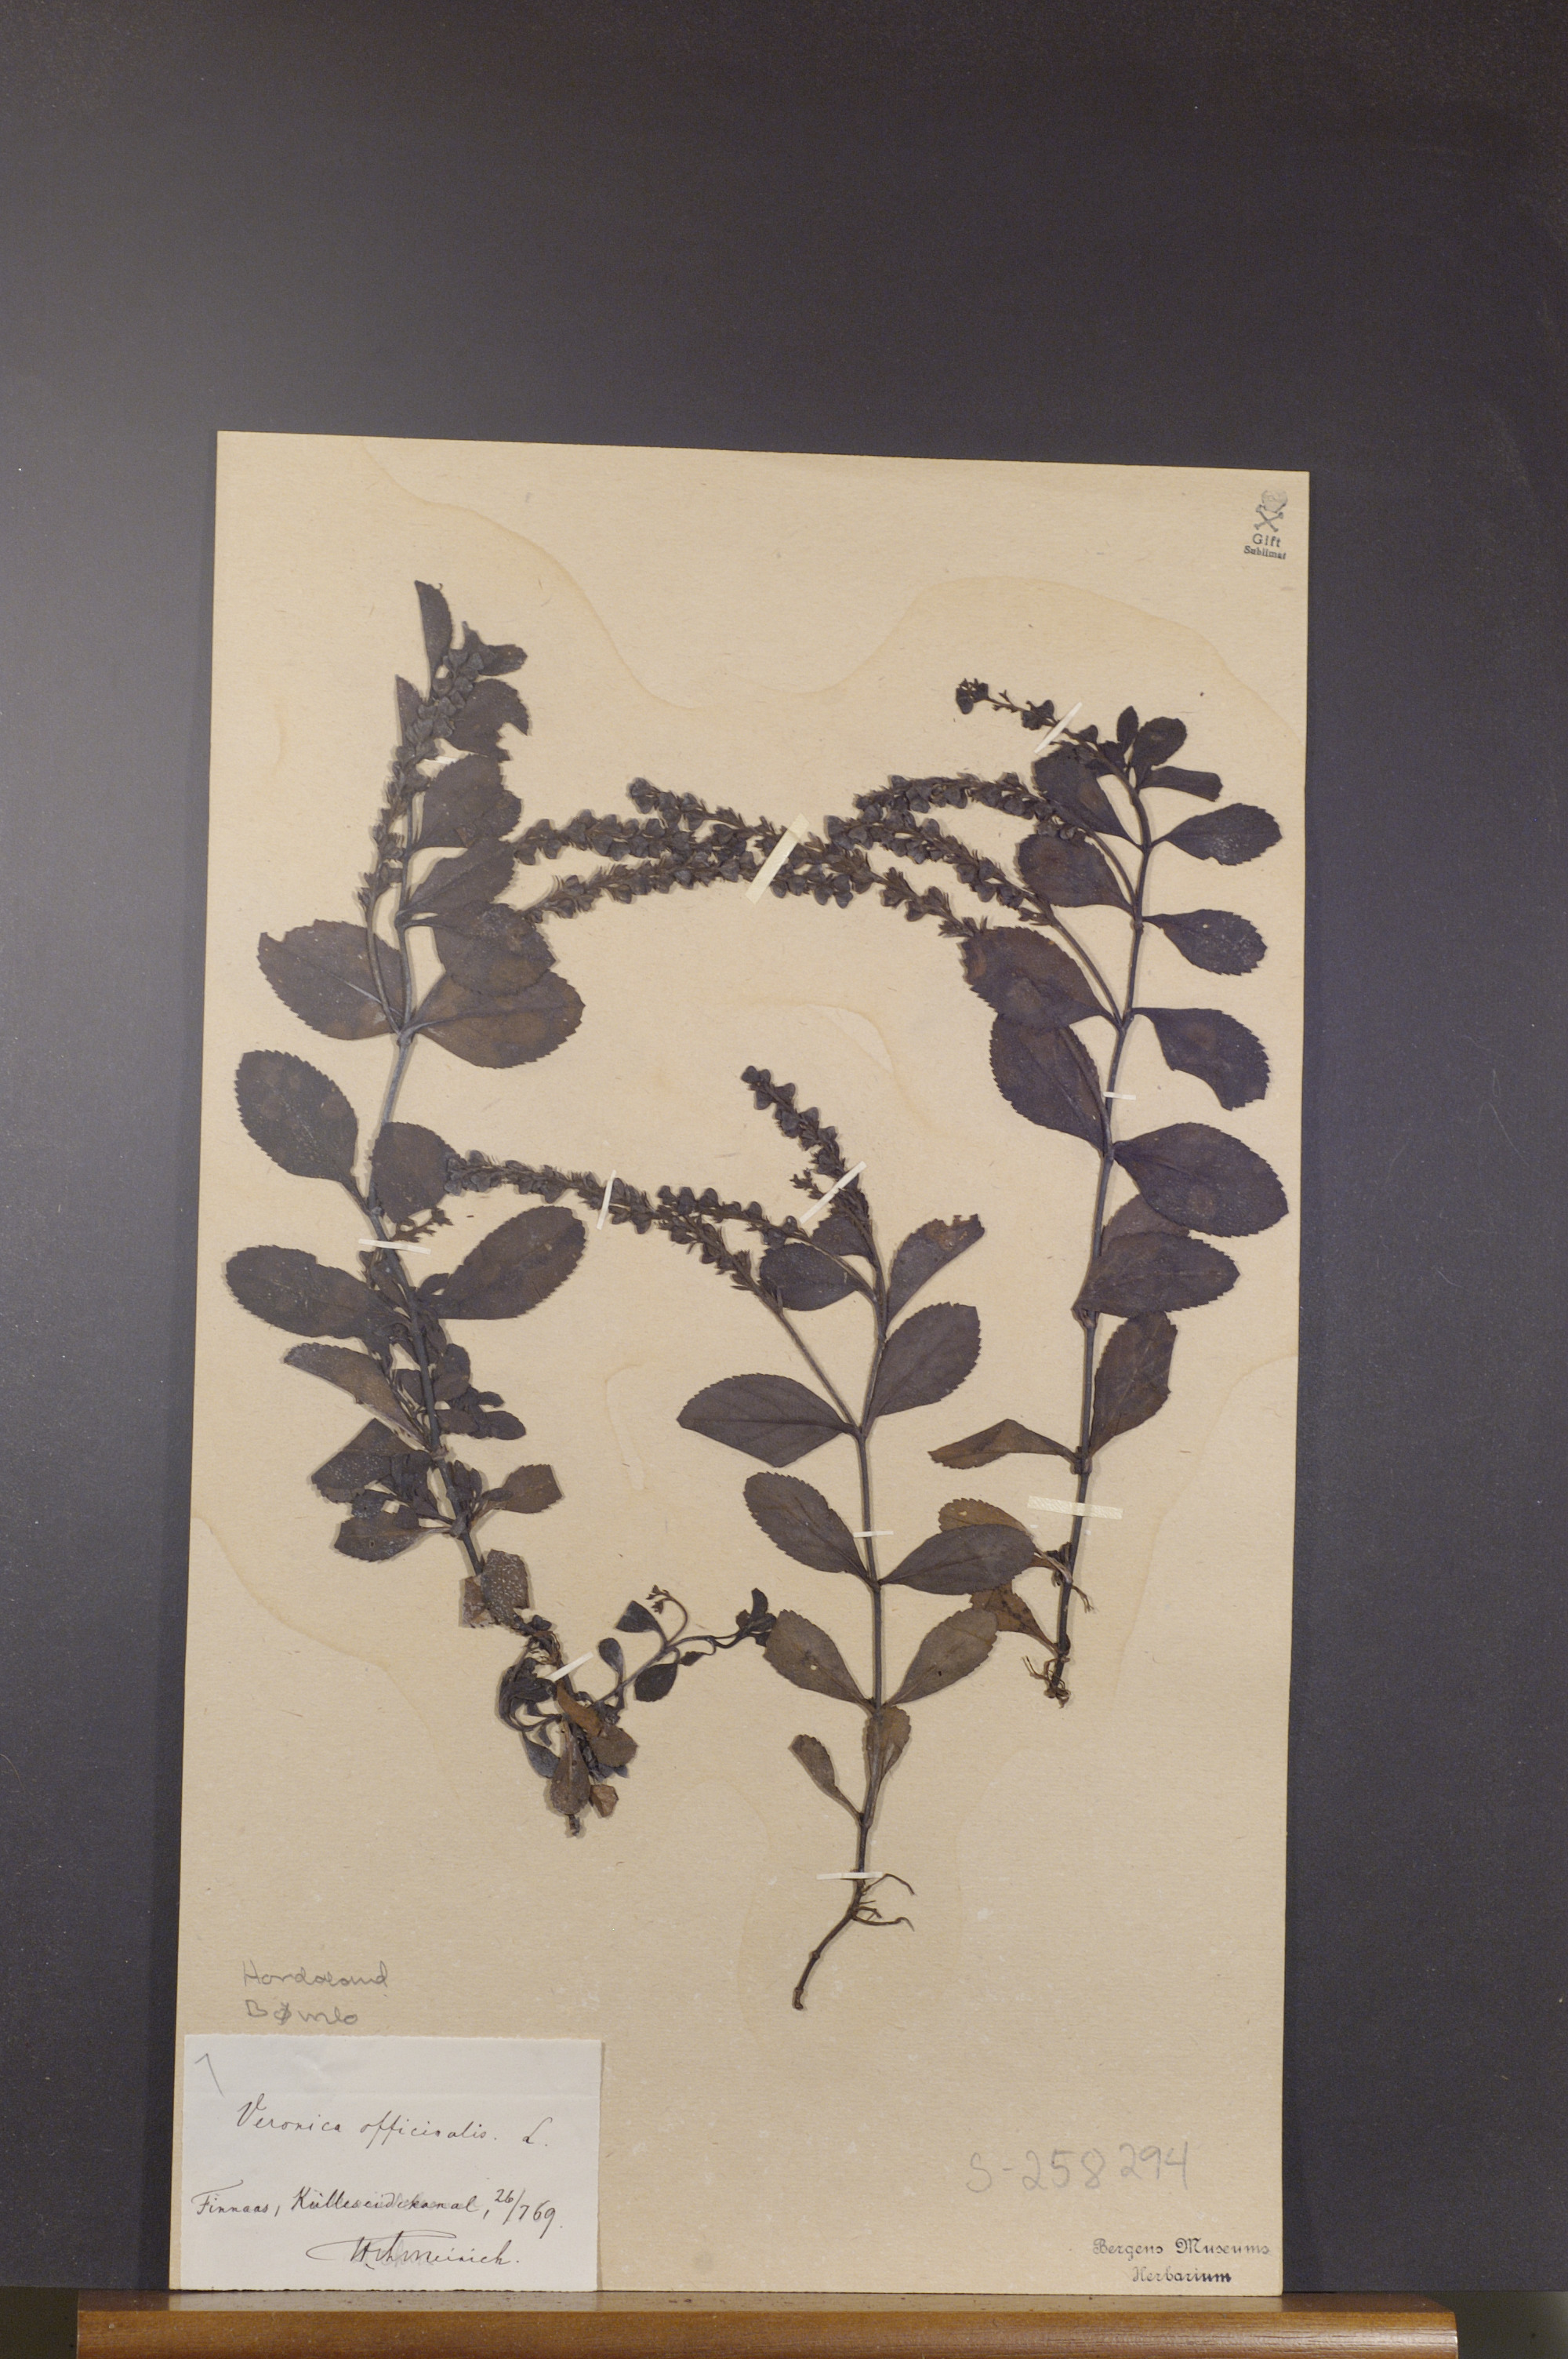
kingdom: Plantae
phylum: Tracheophyta
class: Magnoliopsida
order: Lamiales
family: Plantaginaceae
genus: Veronica
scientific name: Veronica officinalis
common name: Common speedwell
